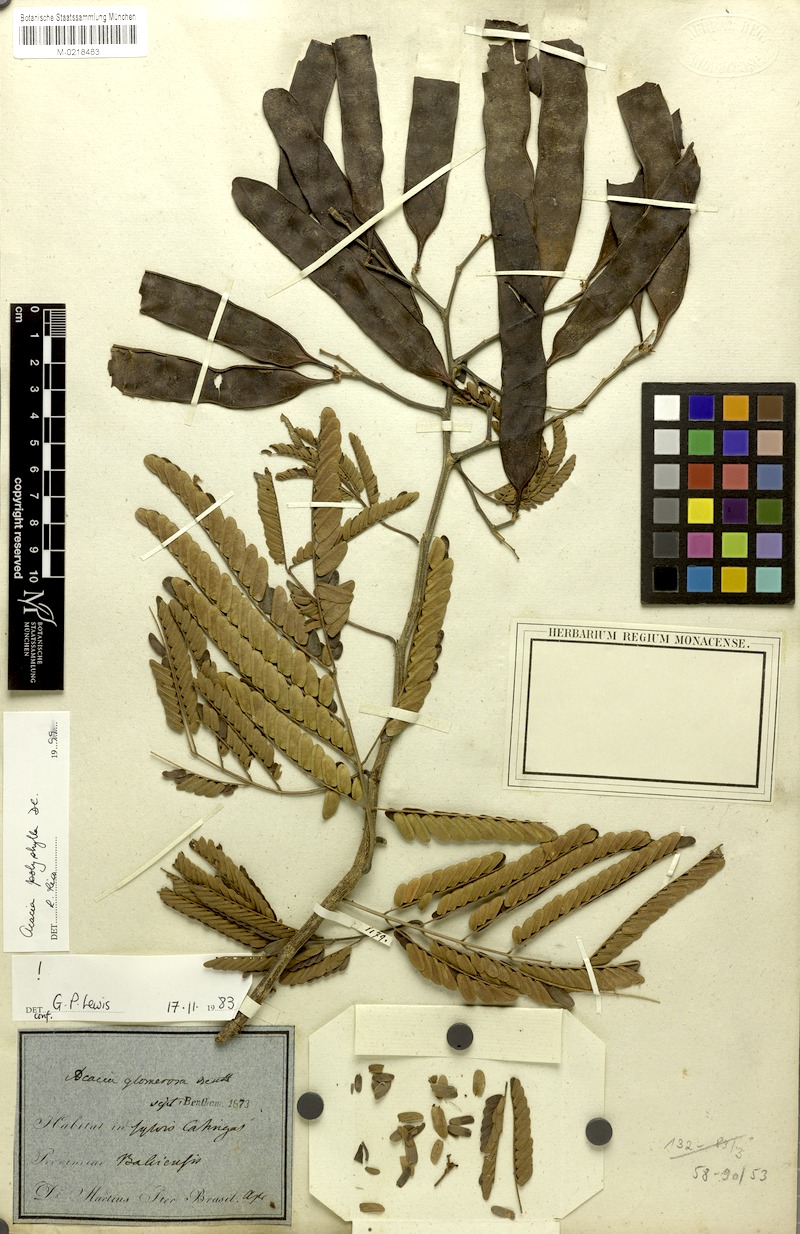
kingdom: Plantae
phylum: Tracheophyta
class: Magnoliopsida
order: Fabales
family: Fabaceae
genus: Senegalia
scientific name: Senegalia polyphylla
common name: White-tamarind
